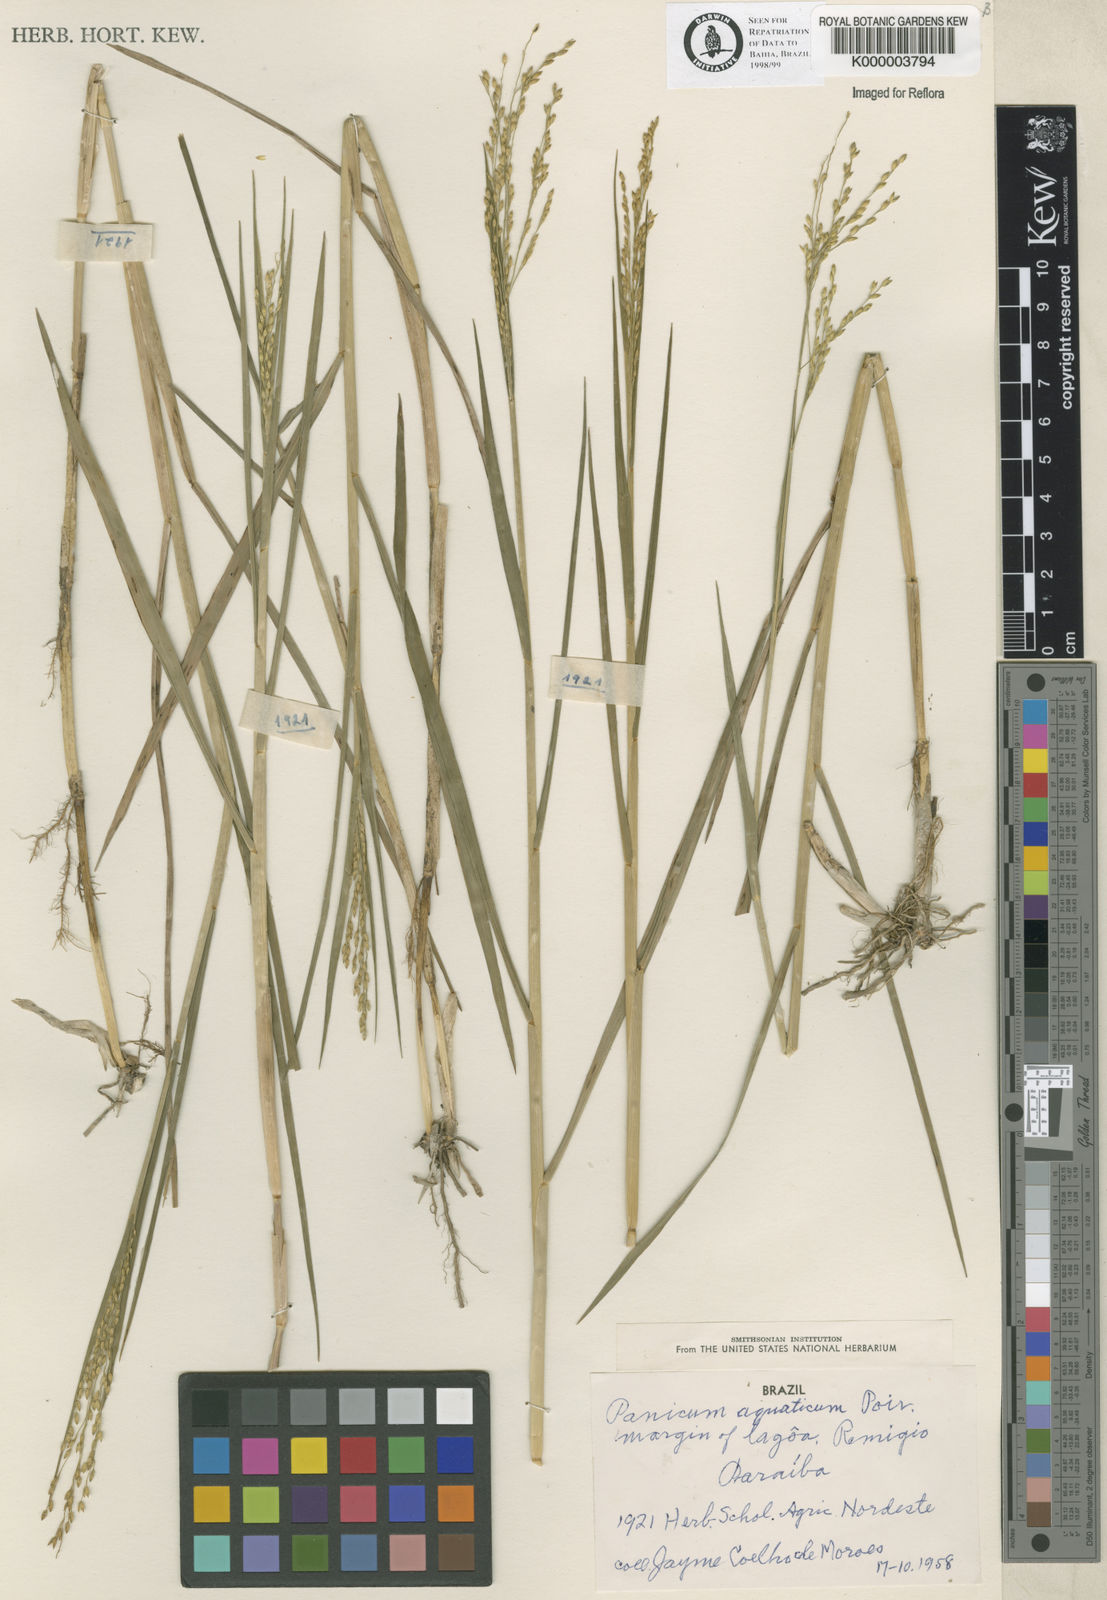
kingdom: Plantae
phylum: Tracheophyta
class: Liliopsida
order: Poales
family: Poaceae
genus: Panicum
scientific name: Panicum dichotomiflorum
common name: Autumn millet
